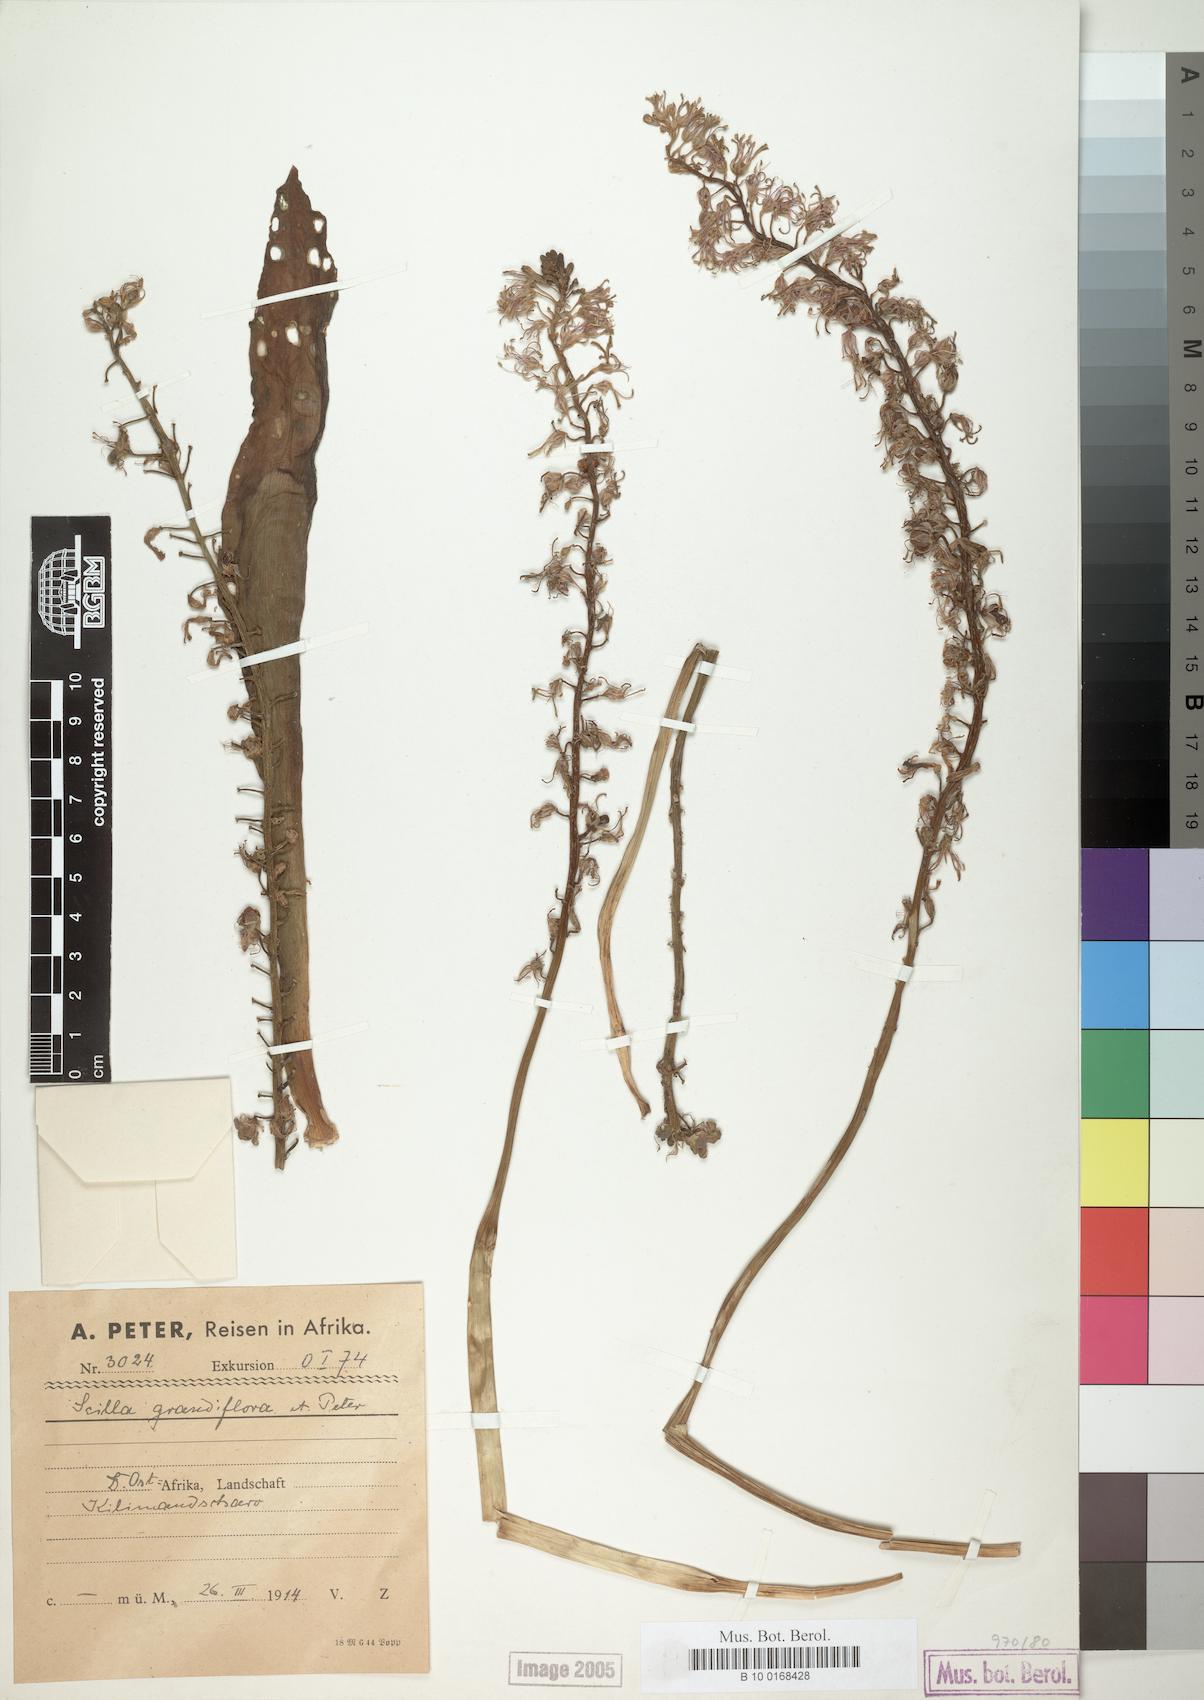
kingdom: Plantae
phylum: Tracheophyta
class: Liliopsida
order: Asparagales
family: Asparagaceae
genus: Scilla
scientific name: Scilla
